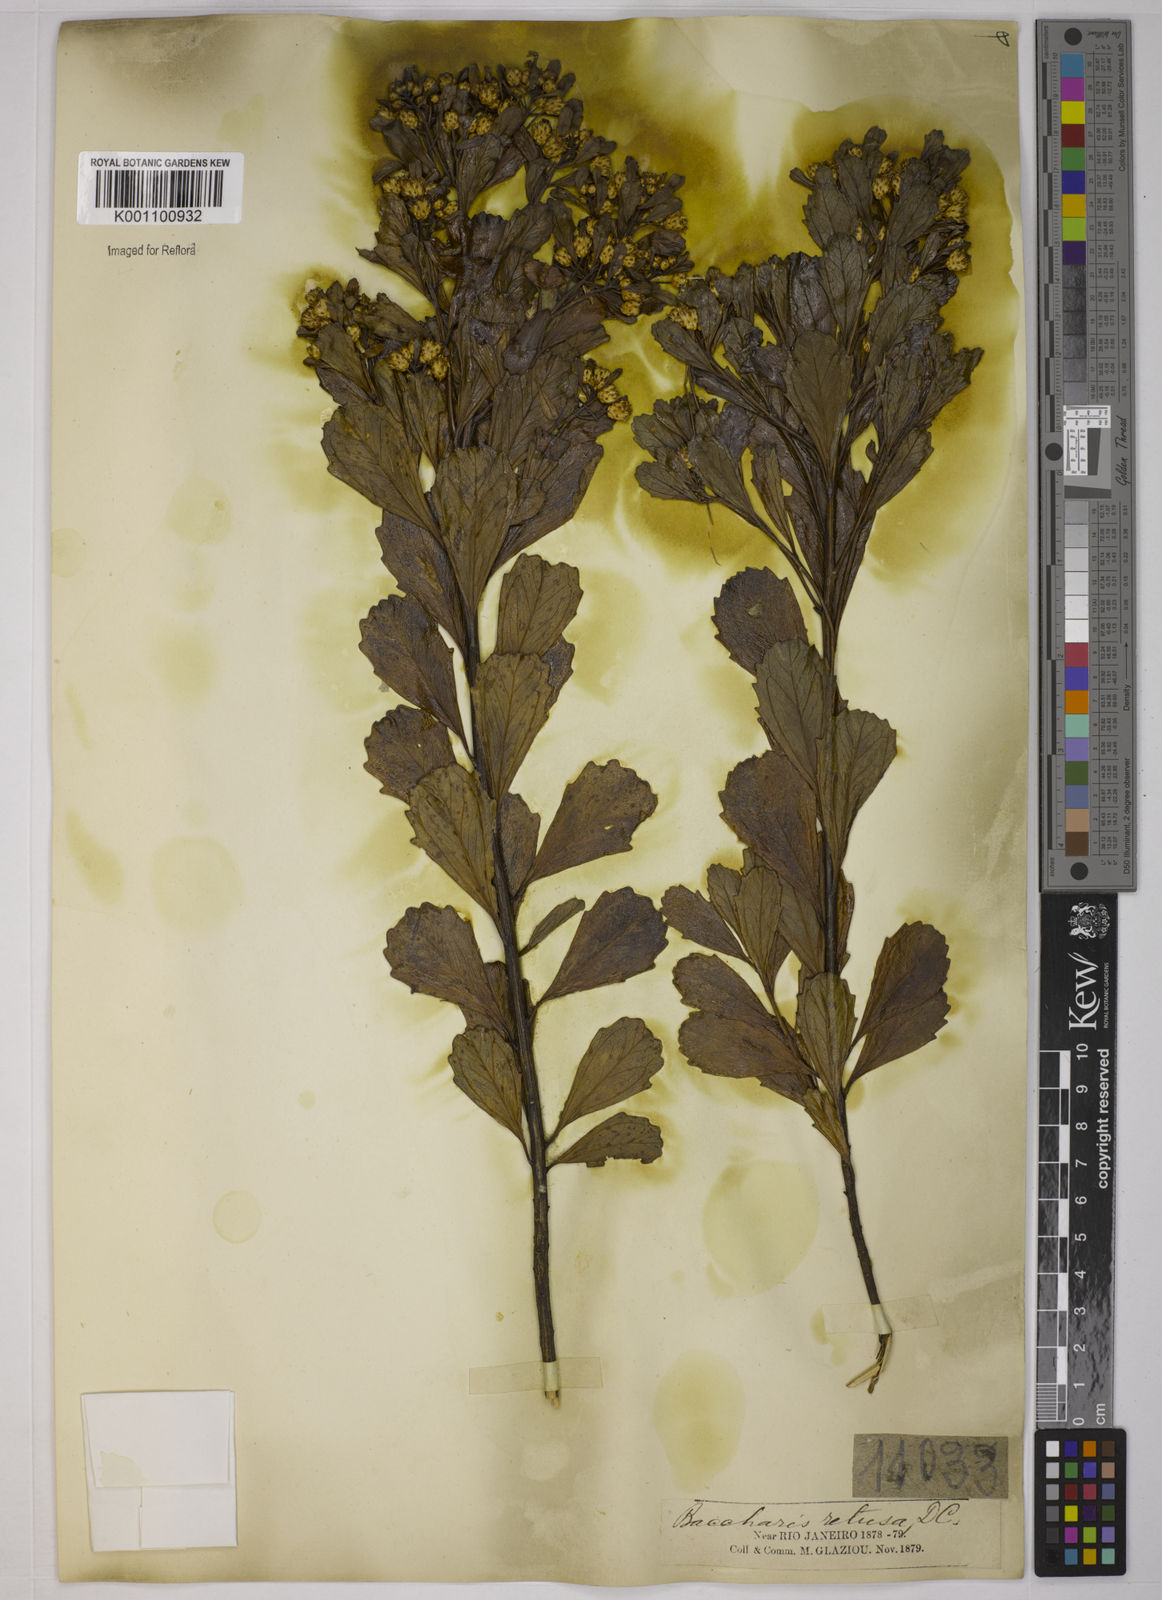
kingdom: Plantae
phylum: Tracheophyta
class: Magnoliopsida
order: Asterales
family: Asteraceae
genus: Baccharis
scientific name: Baccharis retusa
